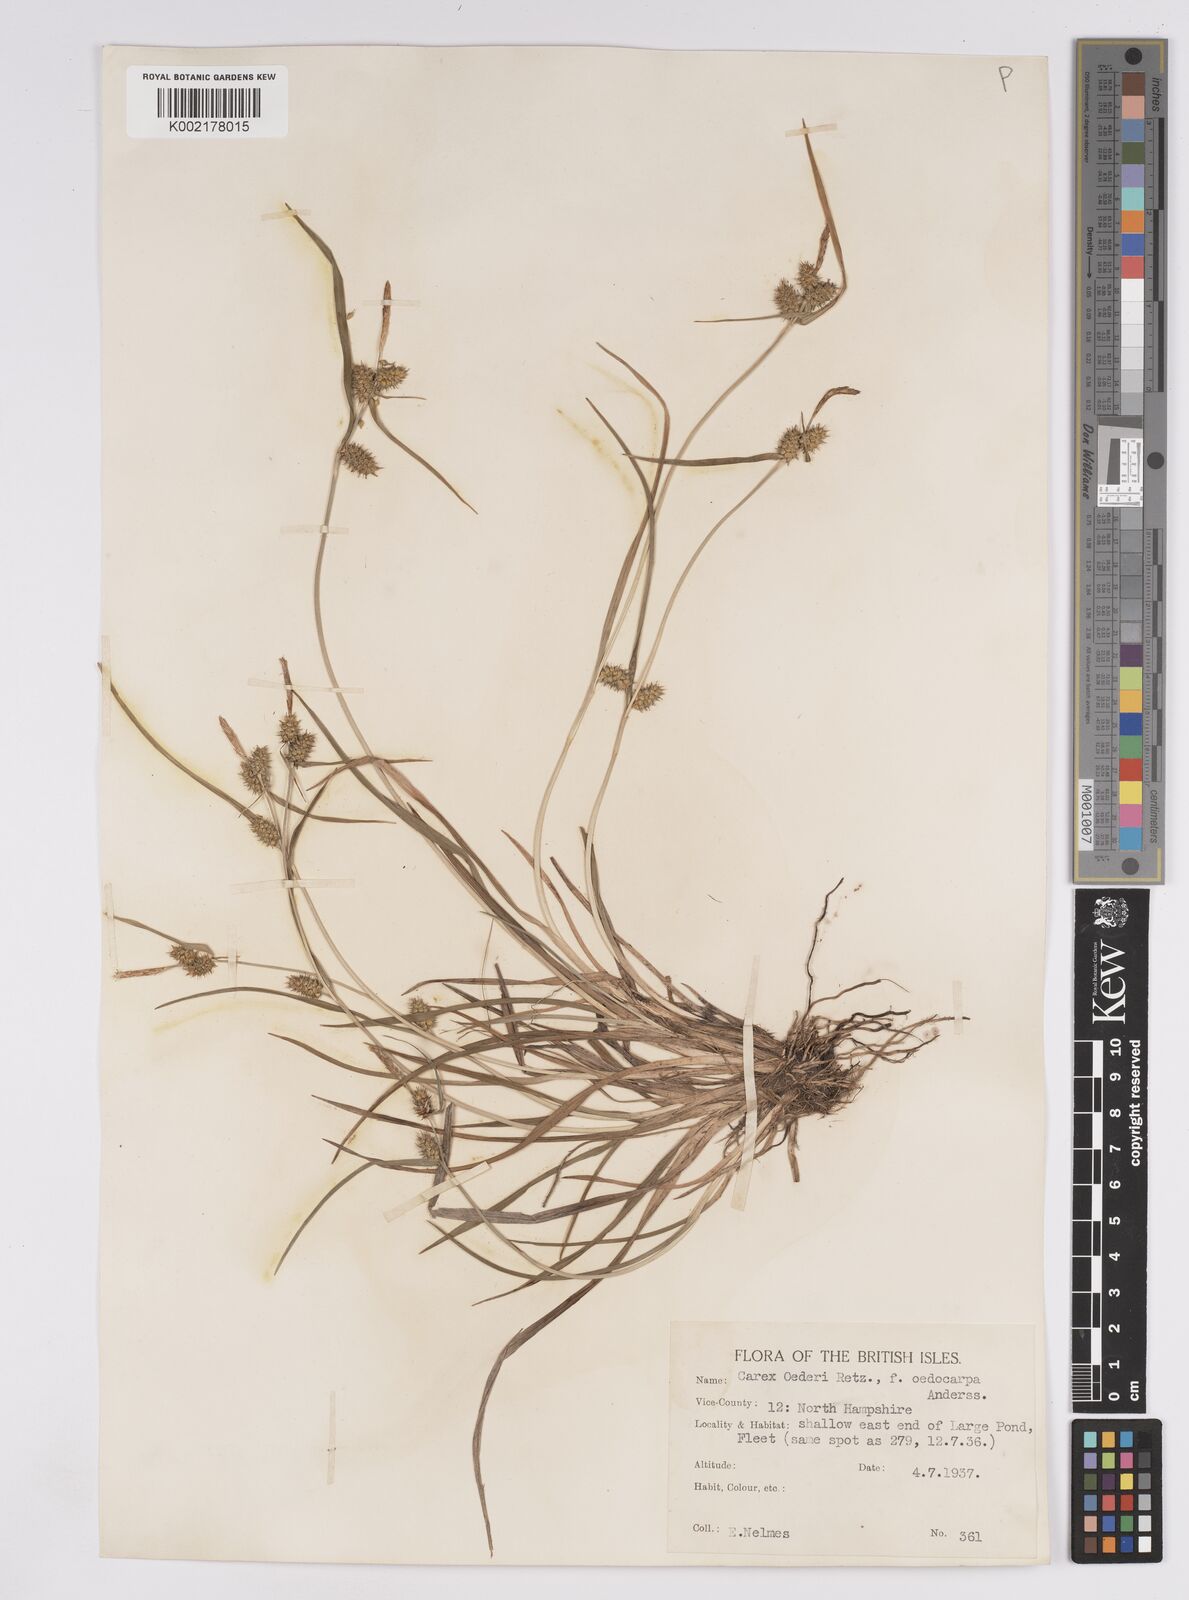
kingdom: Plantae
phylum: Tracheophyta
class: Liliopsida
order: Poales
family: Cyperaceae
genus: Carex
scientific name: Carex demissa
